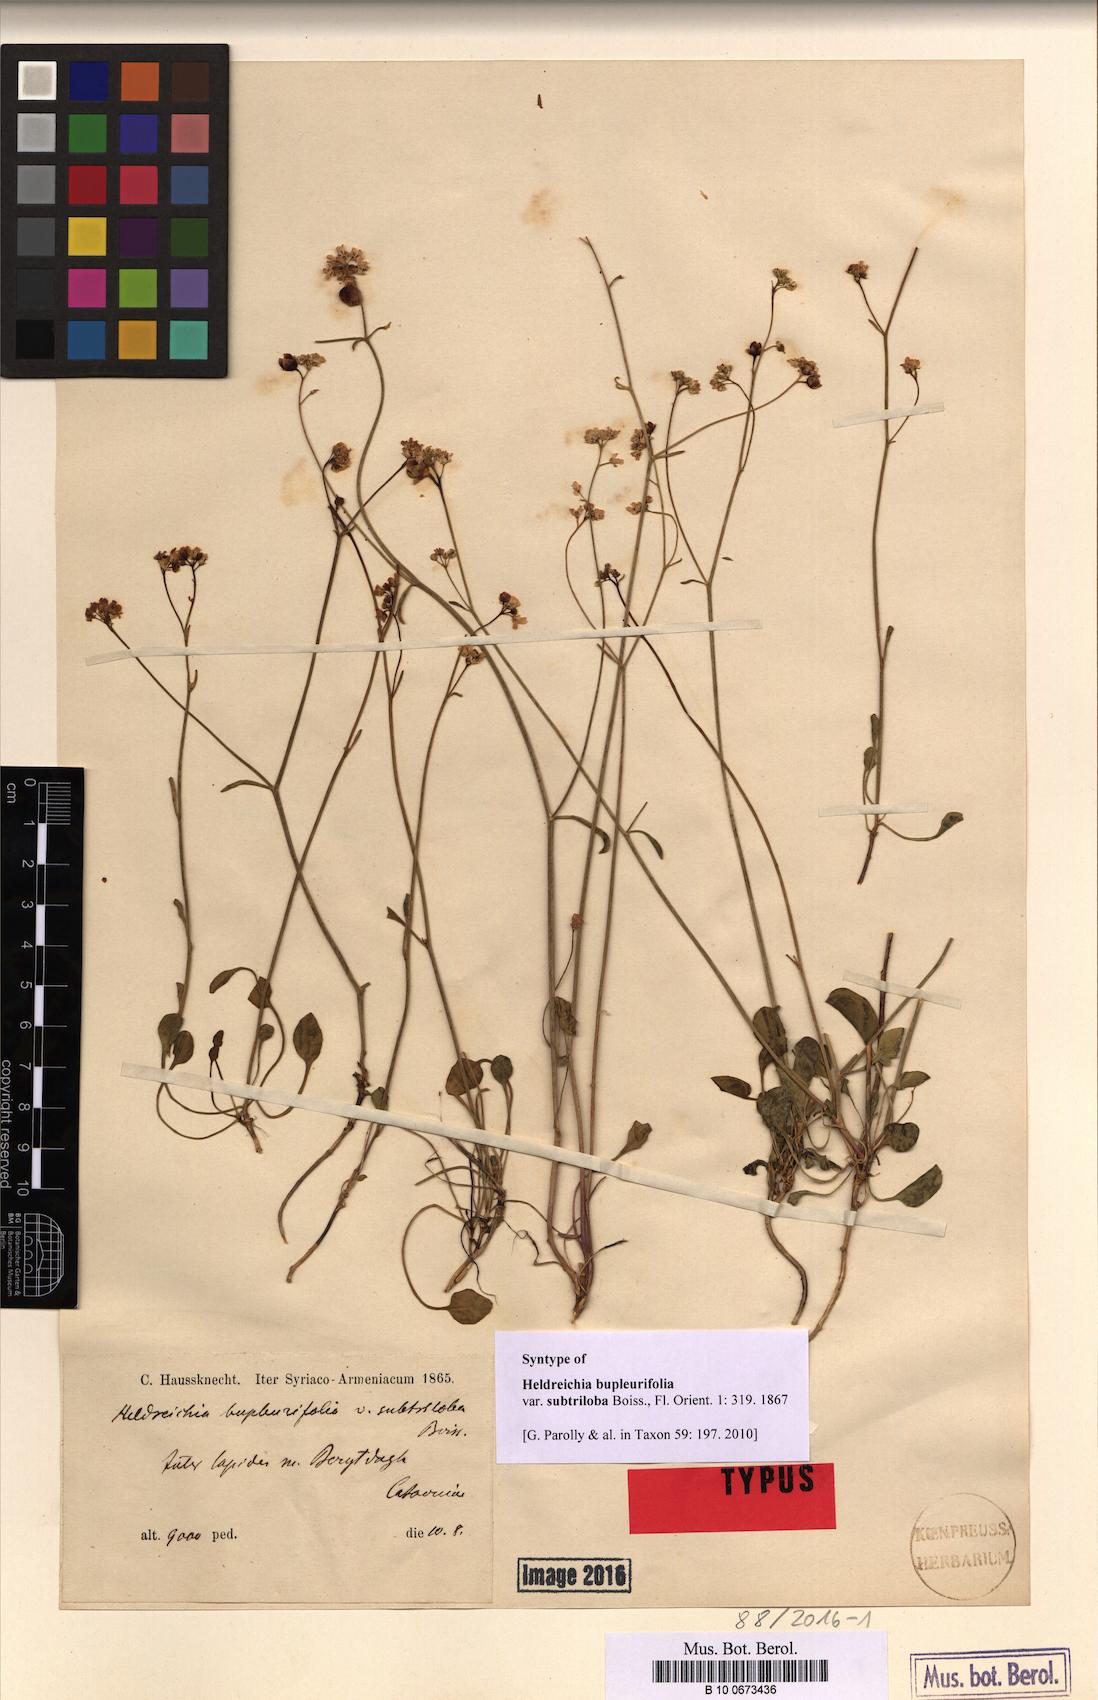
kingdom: Plantae
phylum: Tracheophyta
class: Magnoliopsida
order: Brassicales
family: Brassicaceae
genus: Heldreichia
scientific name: Heldreichia bupleurifolia
